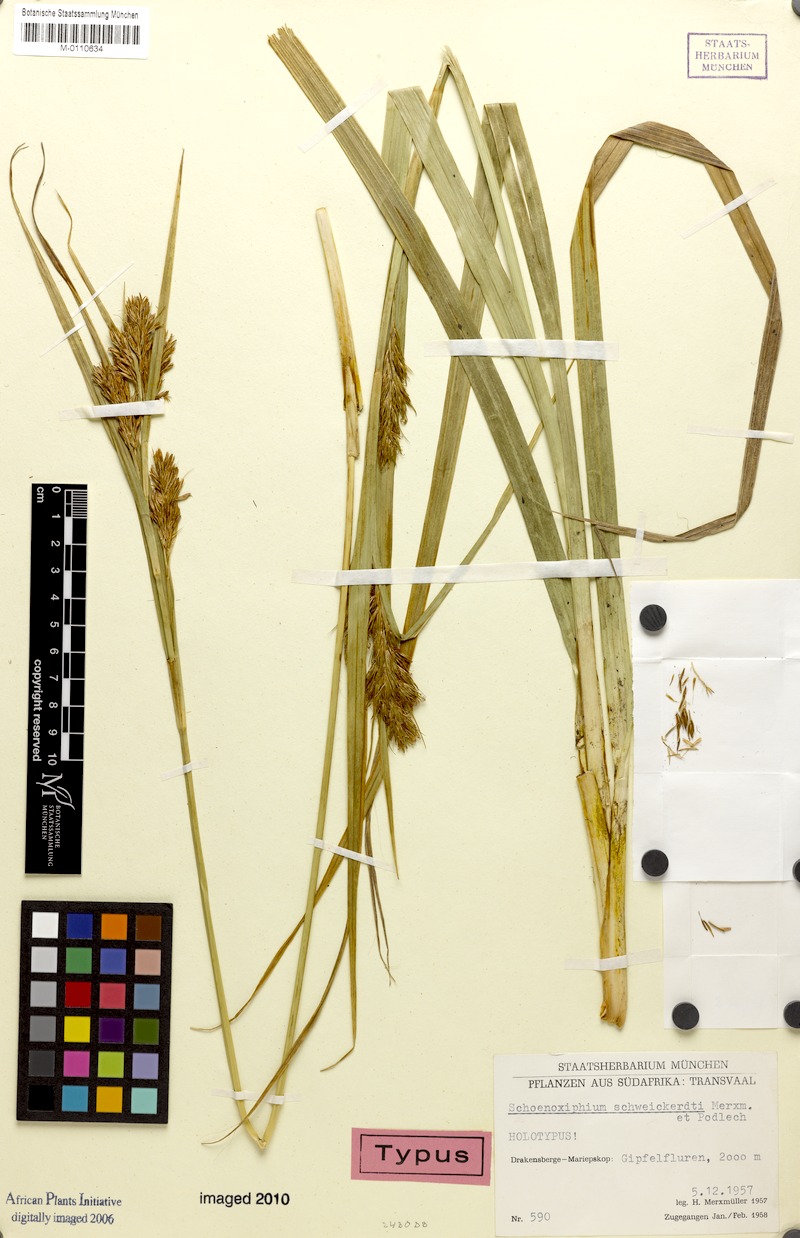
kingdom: Plantae
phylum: Tracheophyta
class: Liliopsida
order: Poales
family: Cyperaceae
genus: Carex
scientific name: Carex schweickerdtii
